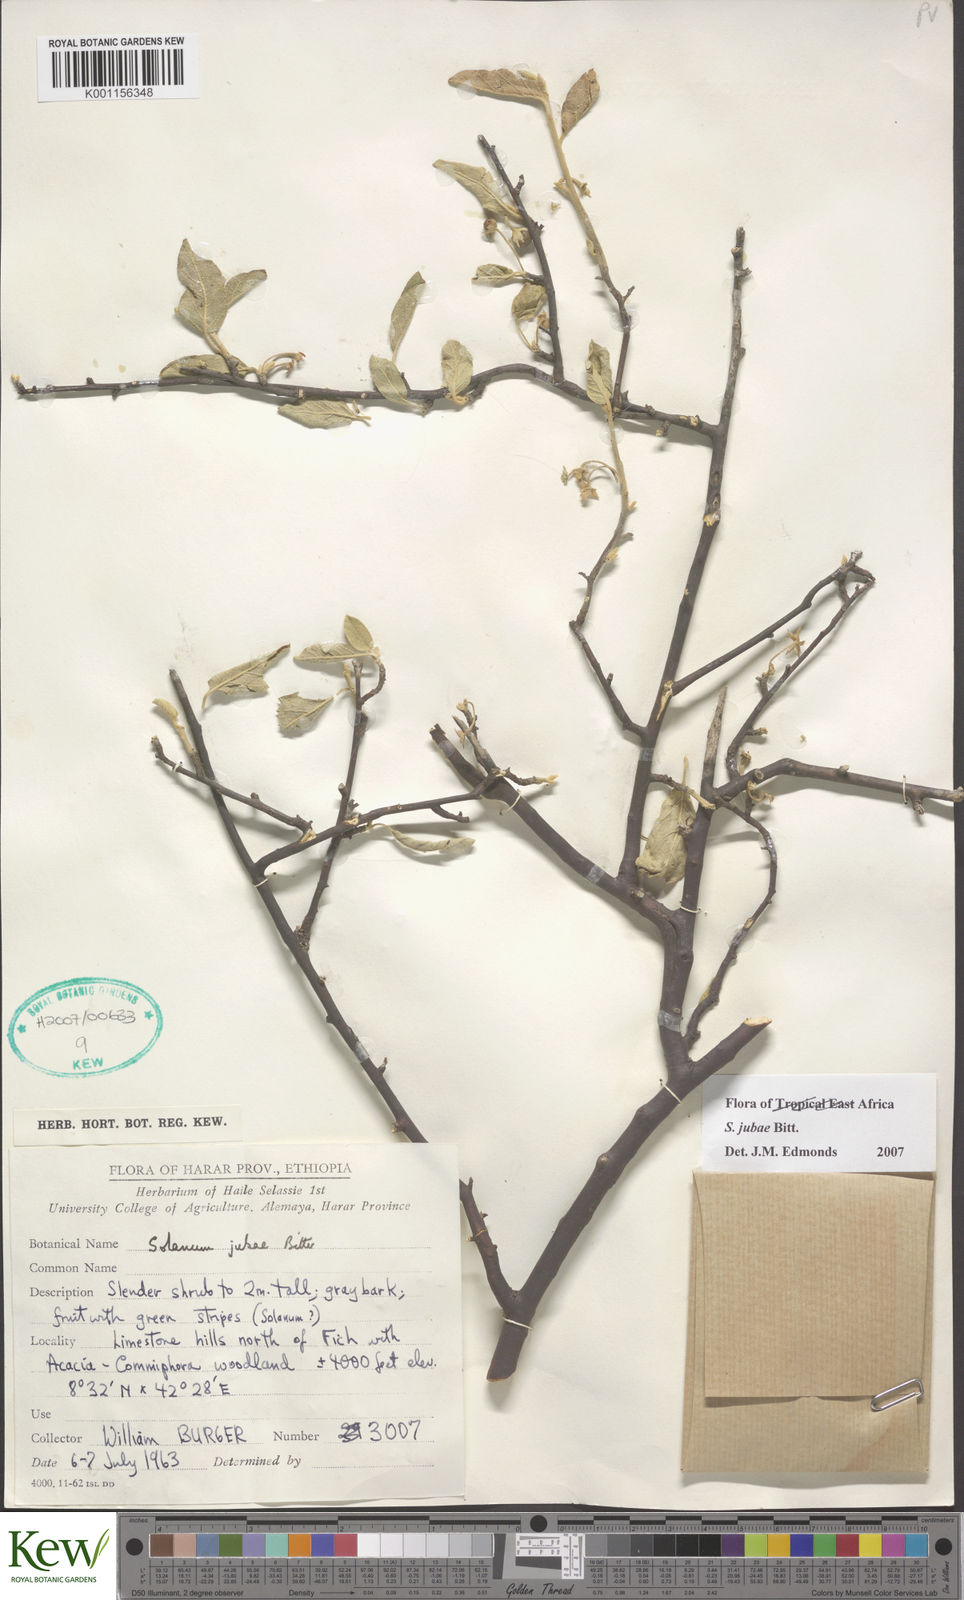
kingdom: Plantae
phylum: Tracheophyta
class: Magnoliopsida
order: Solanales
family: Solanaceae
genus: Solanum
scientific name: Solanum jubae
